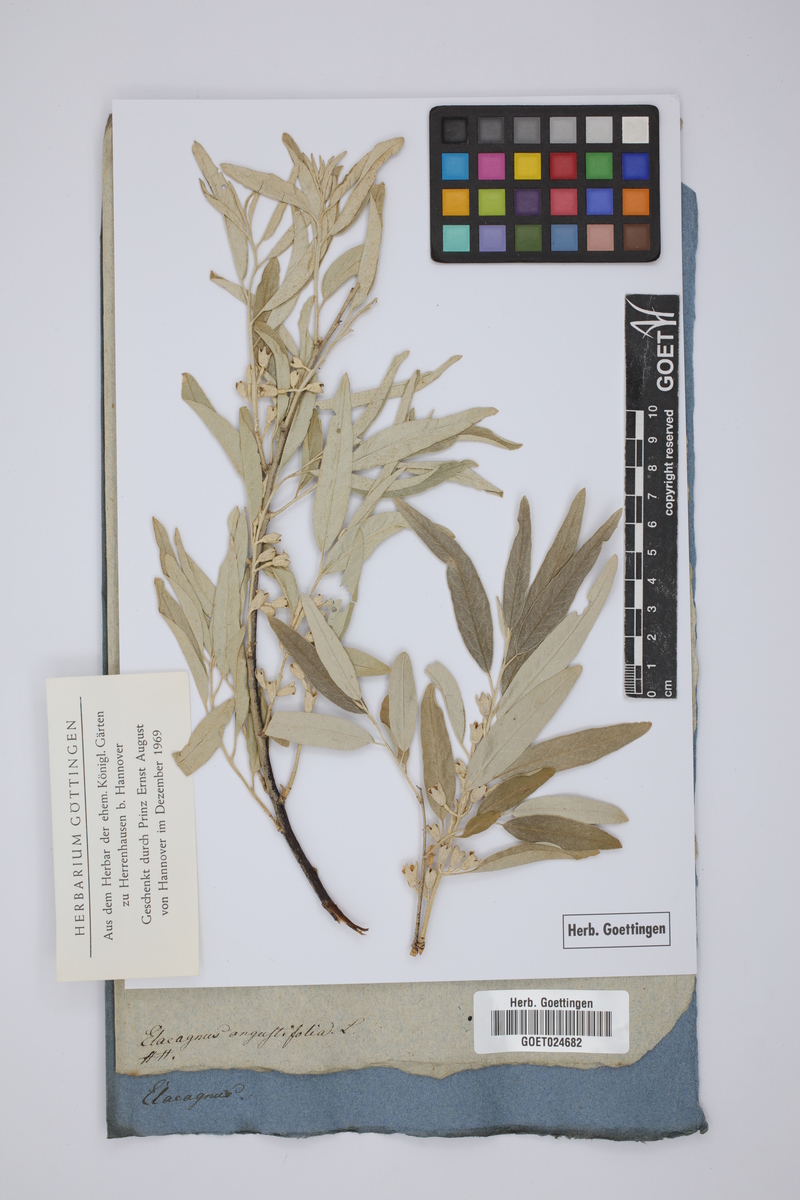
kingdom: Plantae
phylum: Tracheophyta
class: Magnoliopsida
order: Rosales
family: Elaeagnaceae
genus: Elaeagnus
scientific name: Elaeagnus angustifolia
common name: Russian olive
